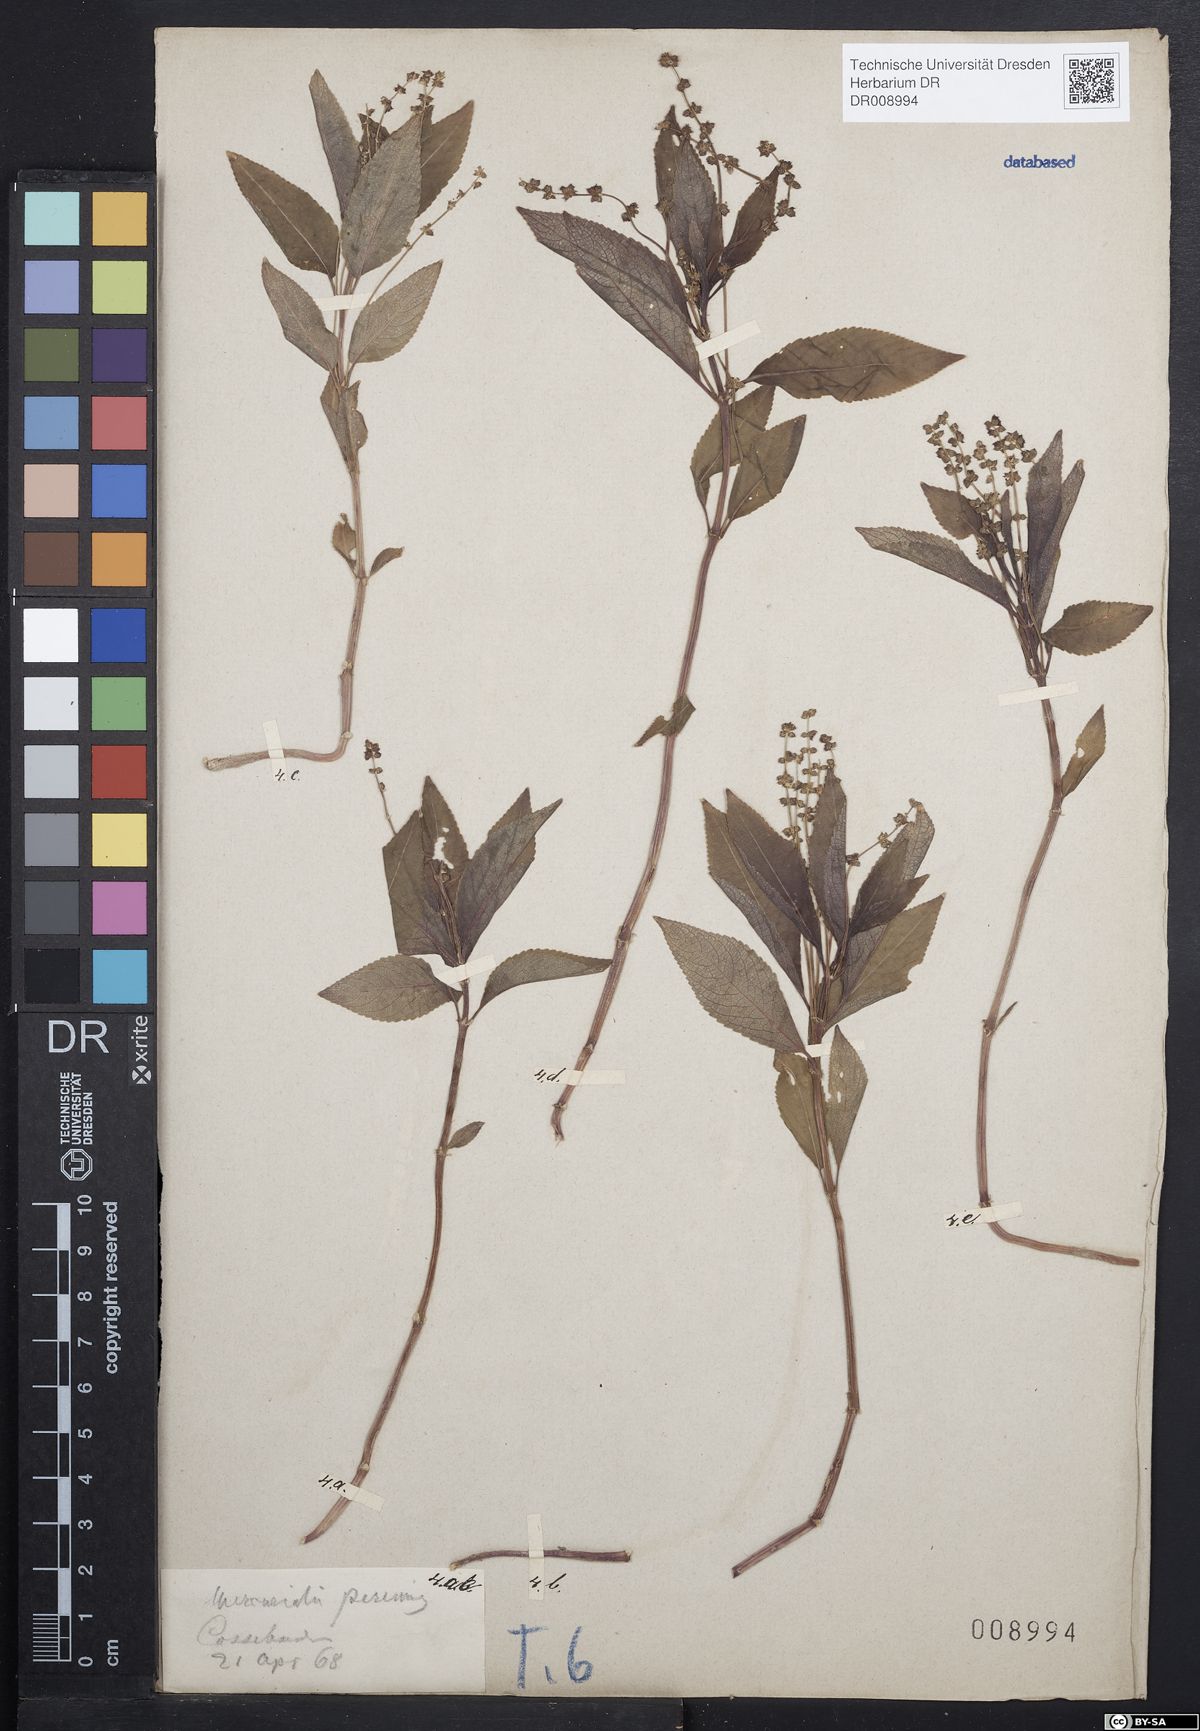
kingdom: Plantae
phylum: Tracheophyta
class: Magnoliopsida
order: Malpighiales
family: Euphorbiaceae
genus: Mercurialis
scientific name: Mercurialis perennis
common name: Dog mercury
